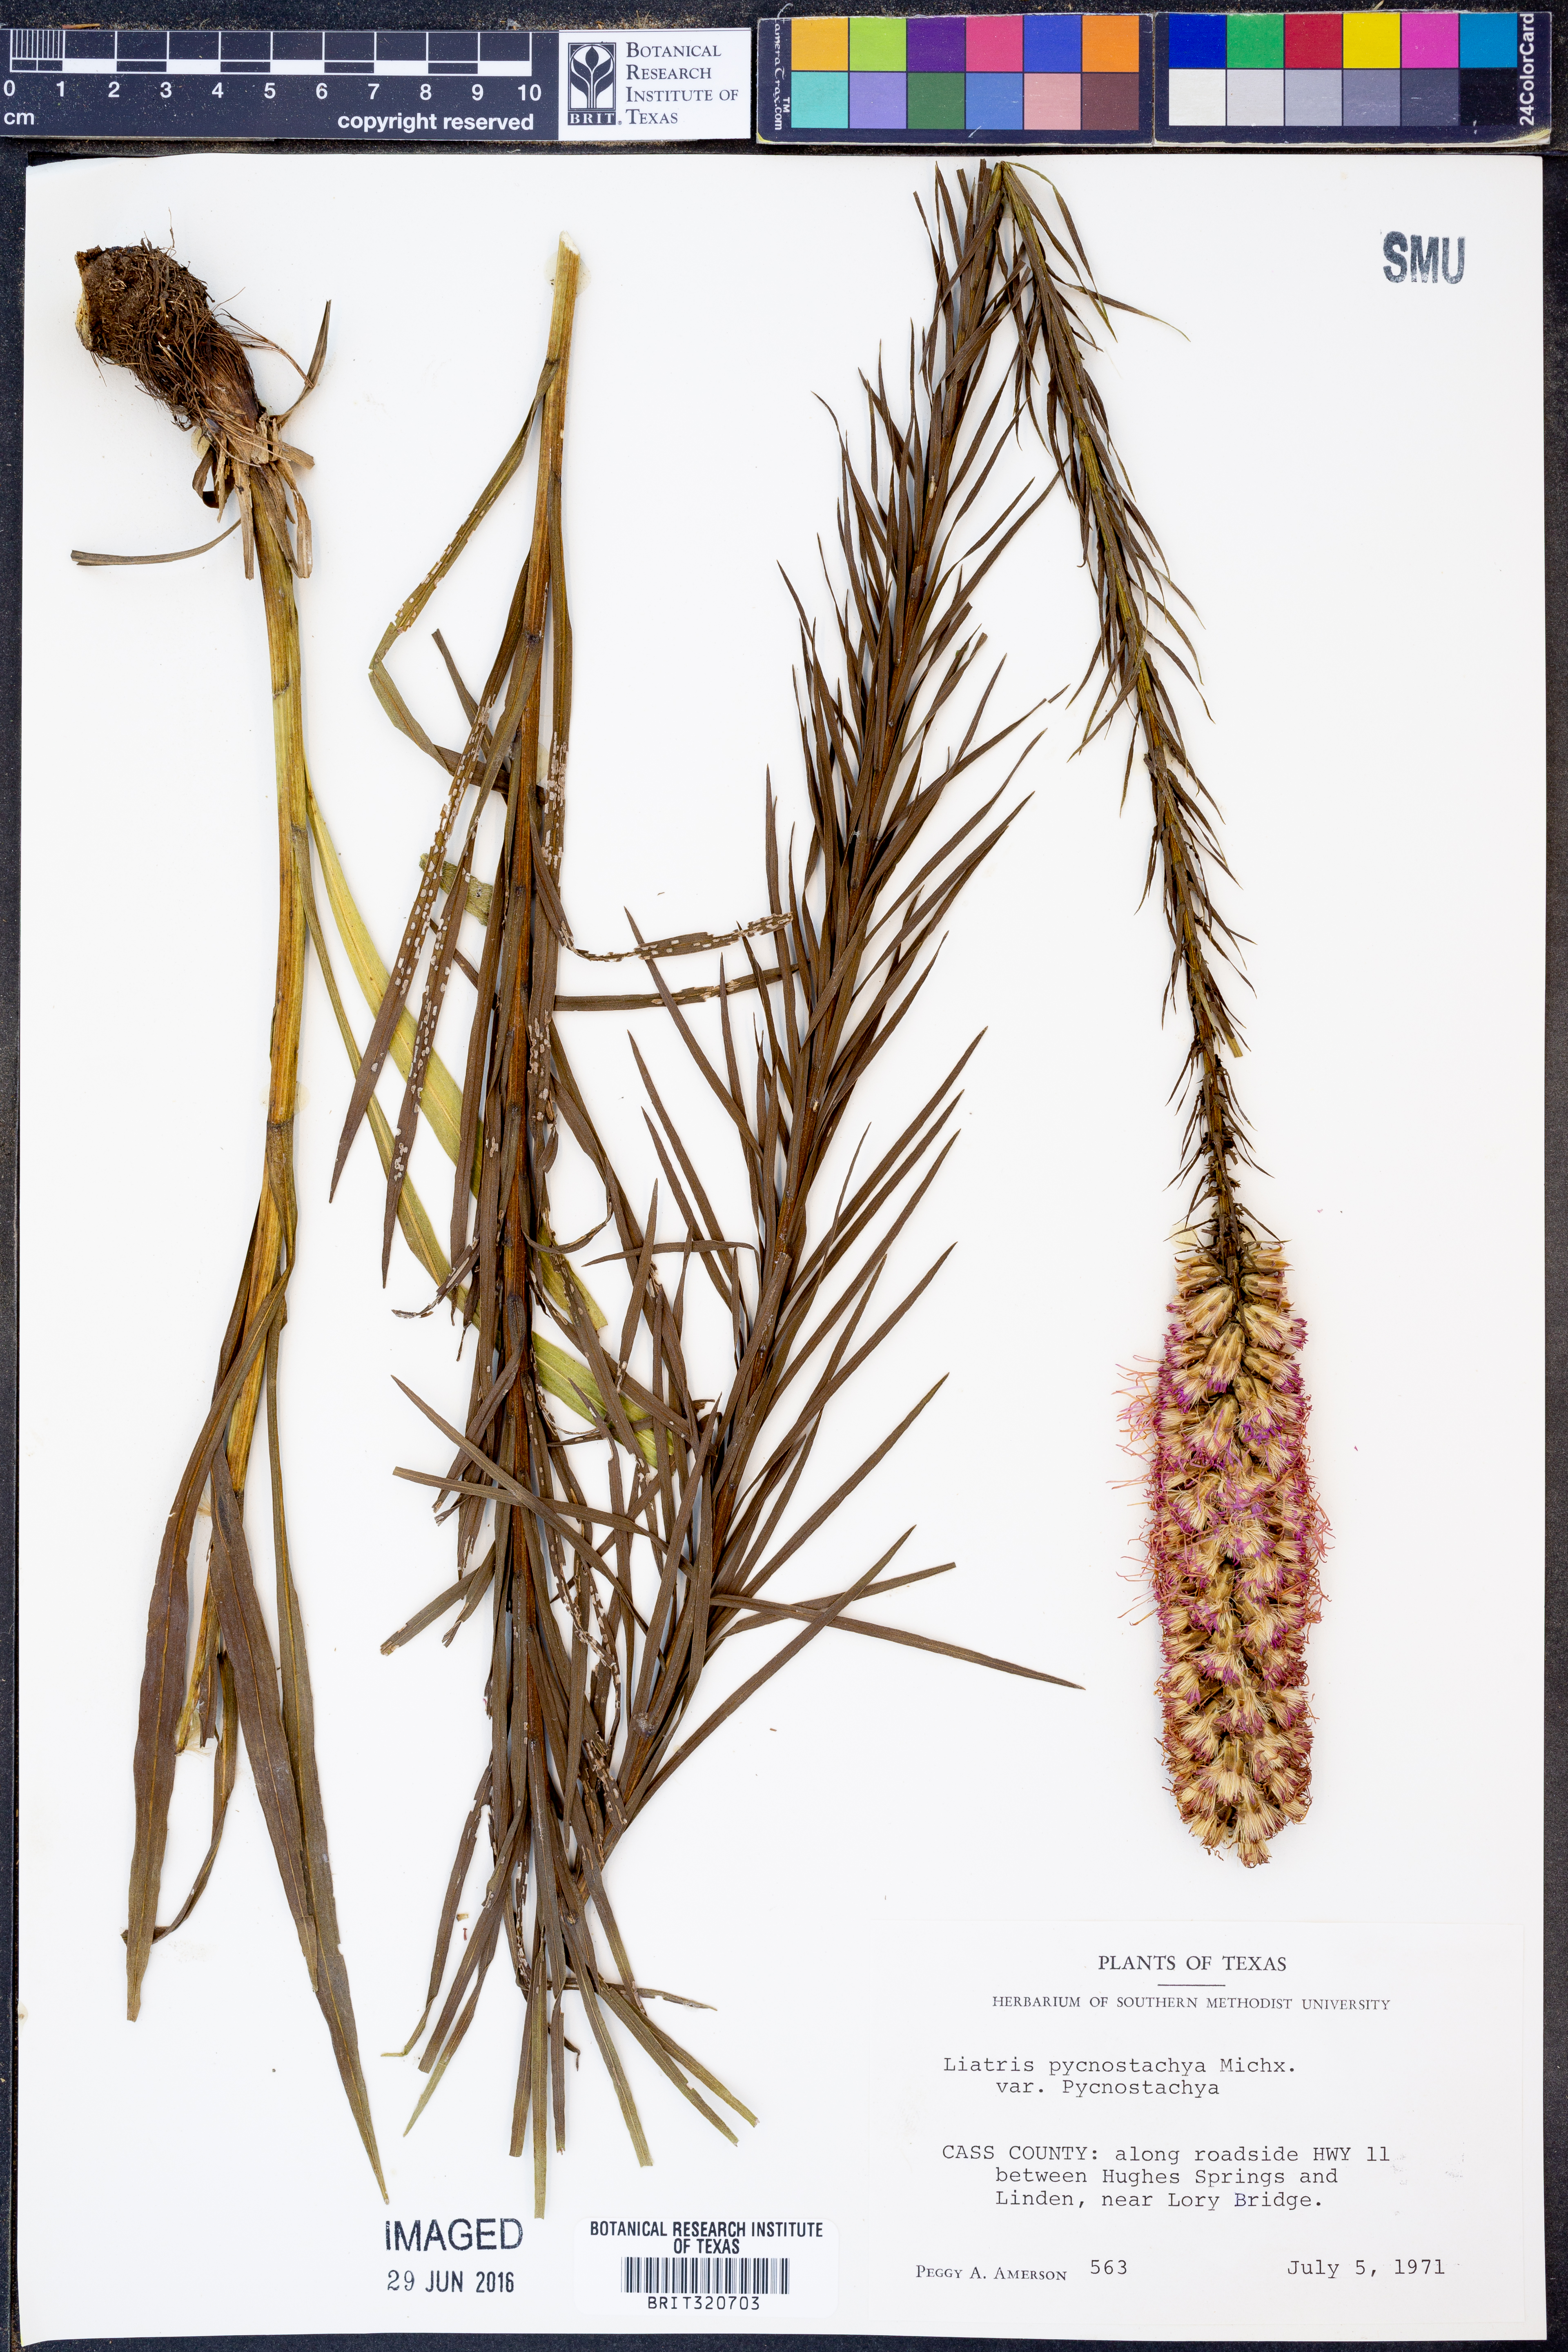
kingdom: Plantae
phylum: Tracheophyta
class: Magnoliopsida
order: Asterales
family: Asteraceae
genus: Liatris
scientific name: Liatris pycnostachya
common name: Cattail gayfeather
